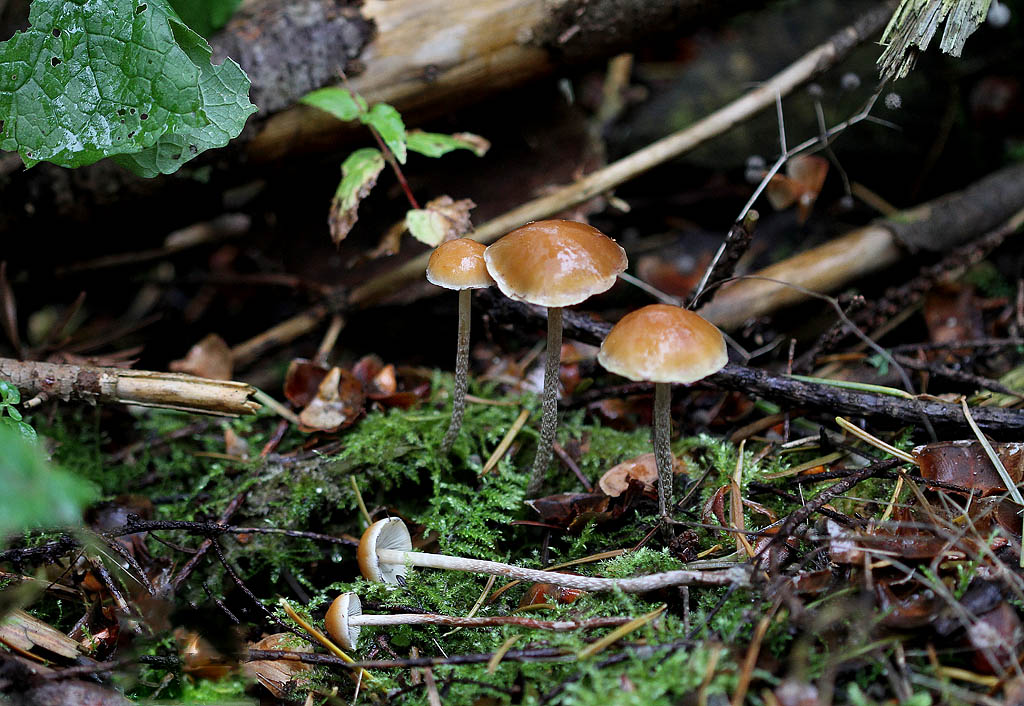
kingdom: Fungi
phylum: Basidiomycota
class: Agaricomycetes
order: Agaricales
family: Strophariaceae
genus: Hypholoma
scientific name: Hypholoma marginatum
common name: enlig svovlhat
